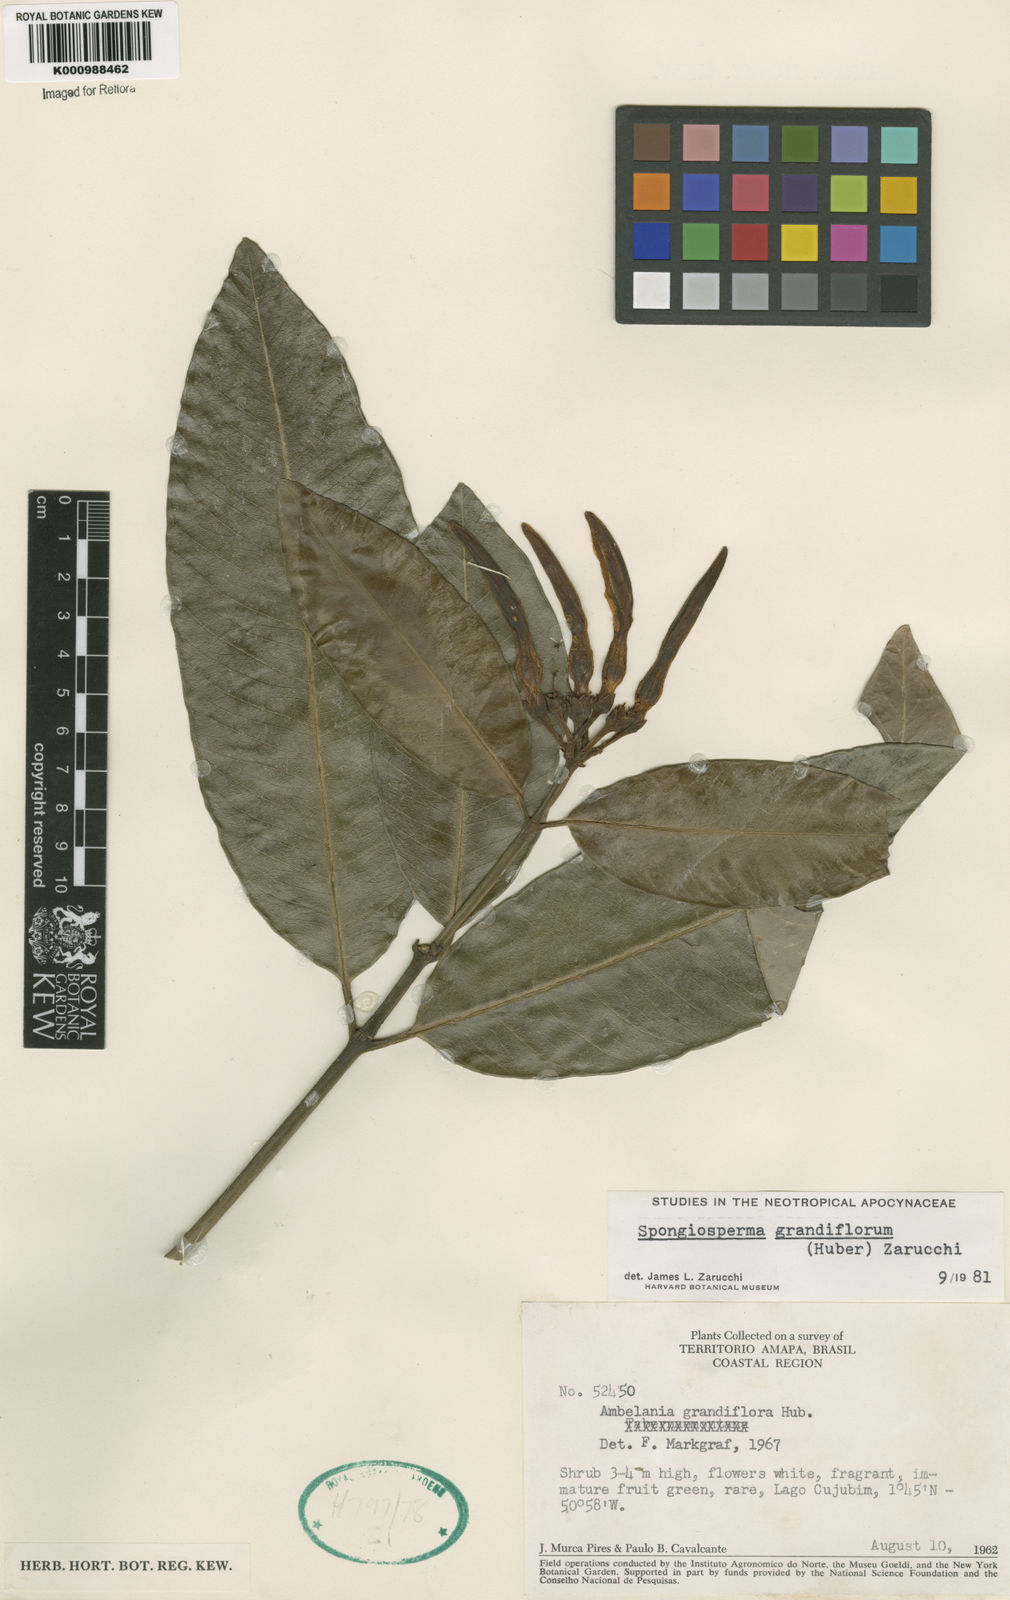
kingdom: Plantae
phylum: Tracheophyta
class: Magnoliopsida
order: Gentianales
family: Apocynaceae
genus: Aspidosperma
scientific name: Aspidosperma
